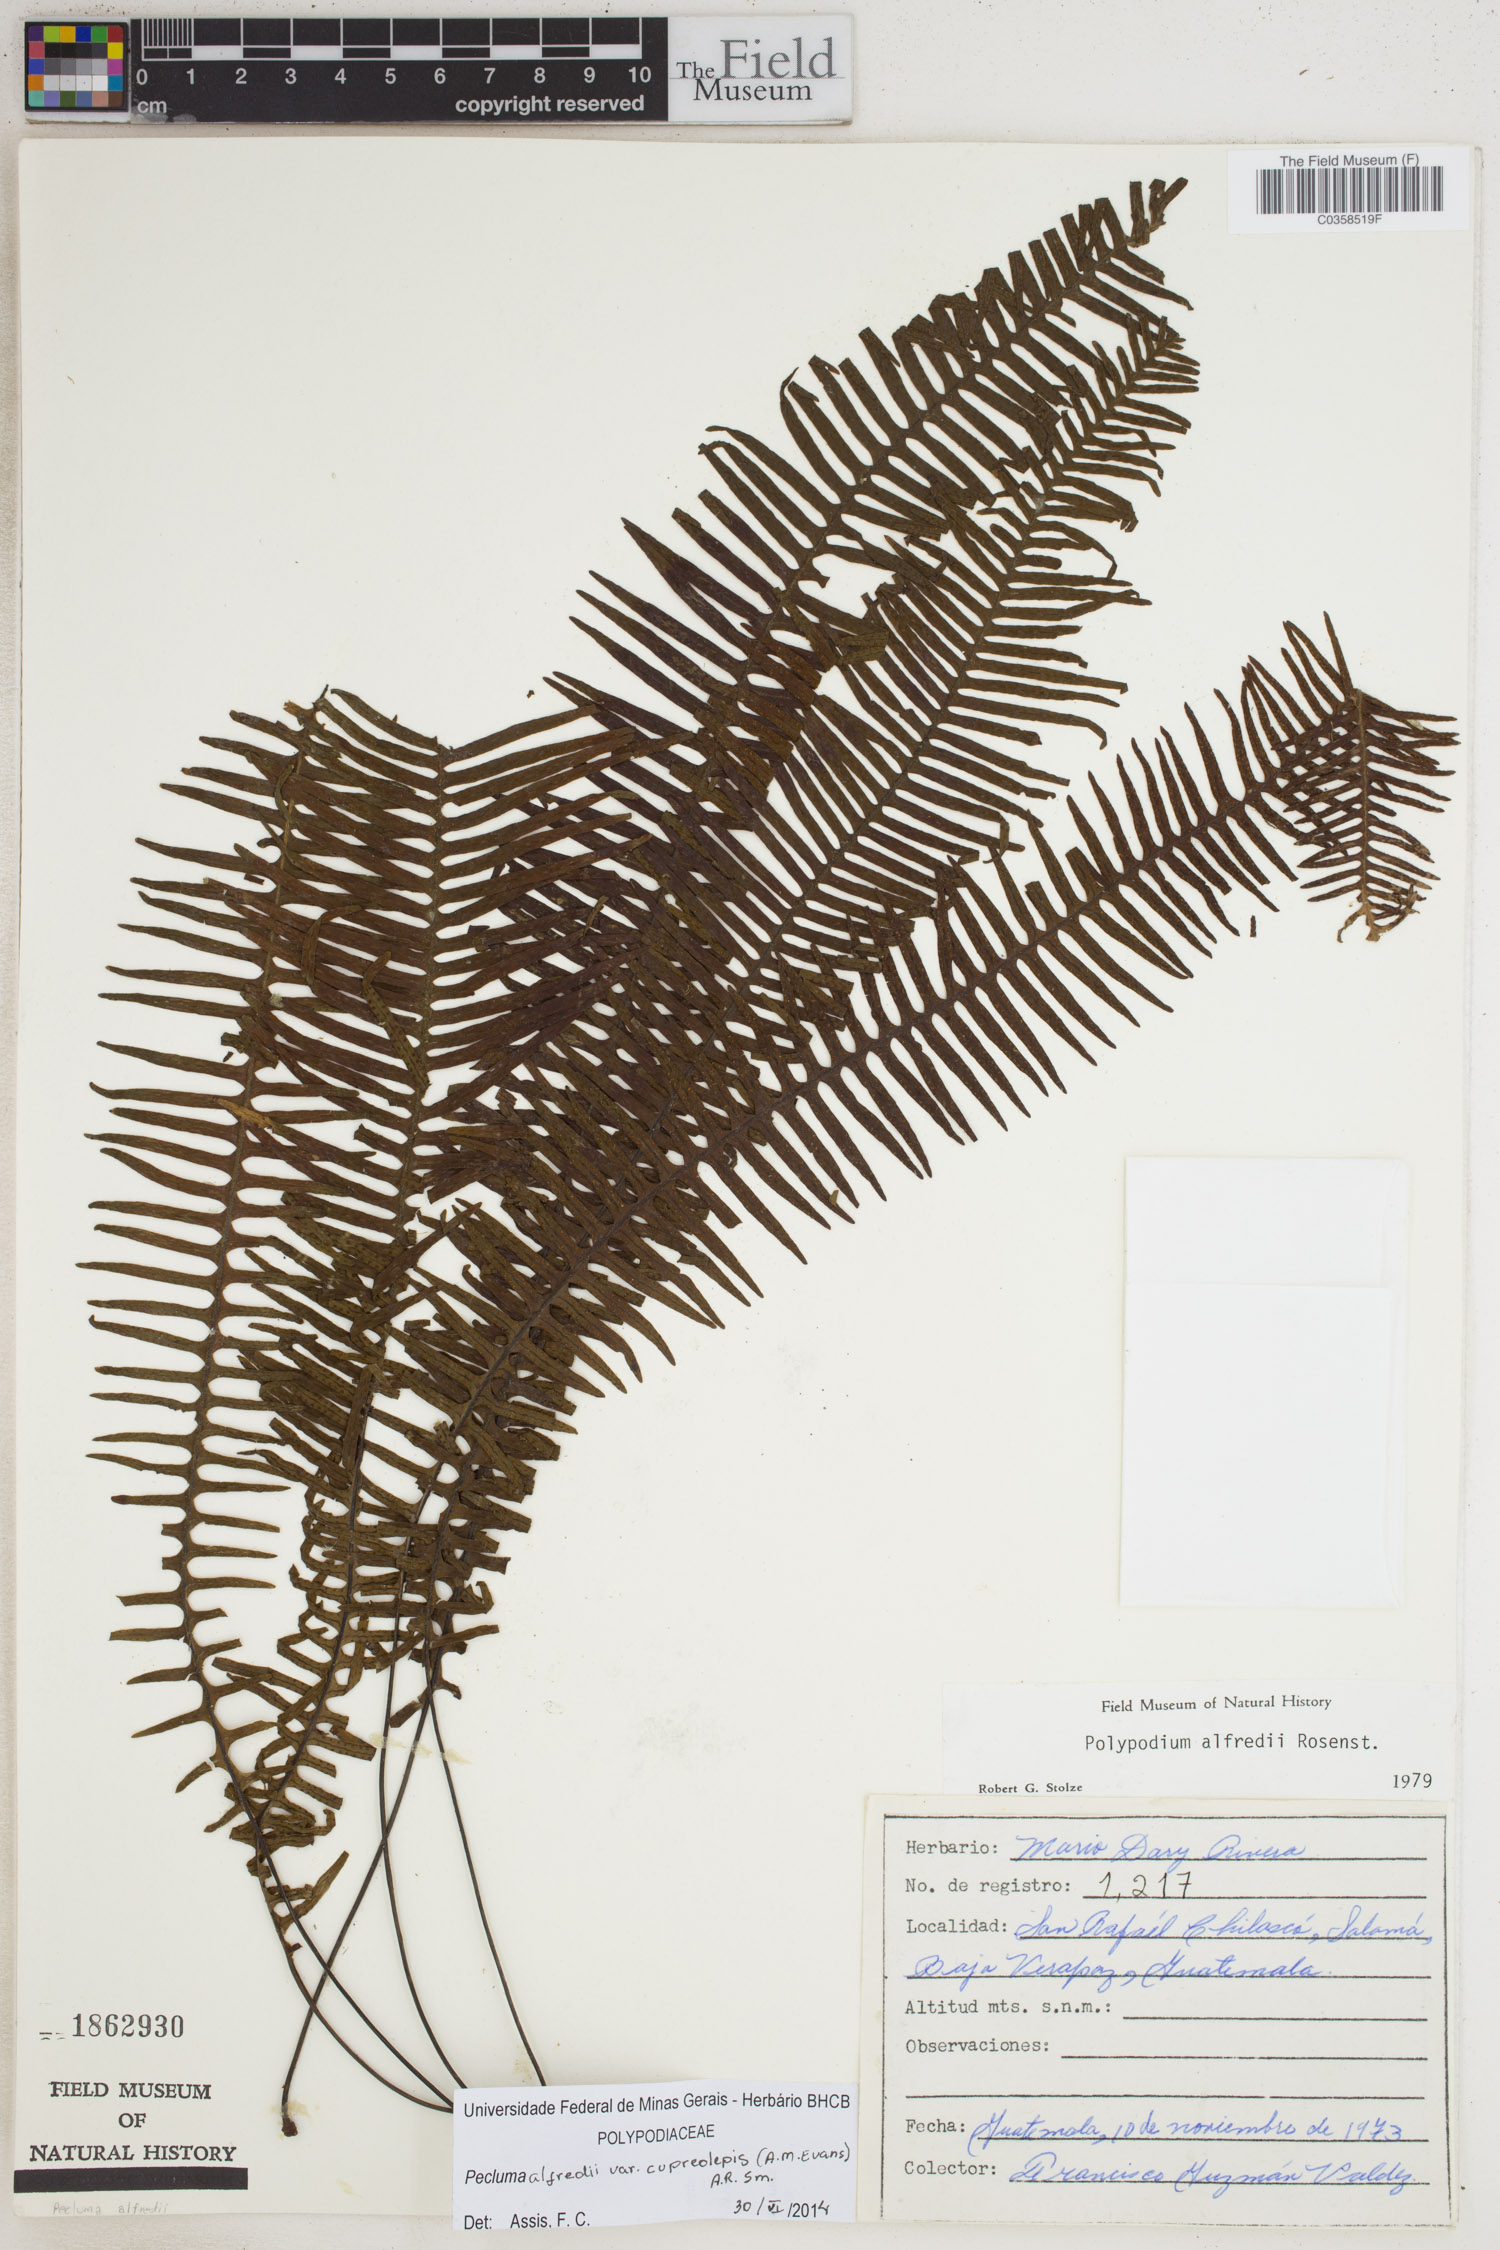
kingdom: Plantae
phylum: Tracheophyta
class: Polypodiopsida
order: Polypodiales
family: Polypodiaceae
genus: Pecluma
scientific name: Pecluma alfredii
